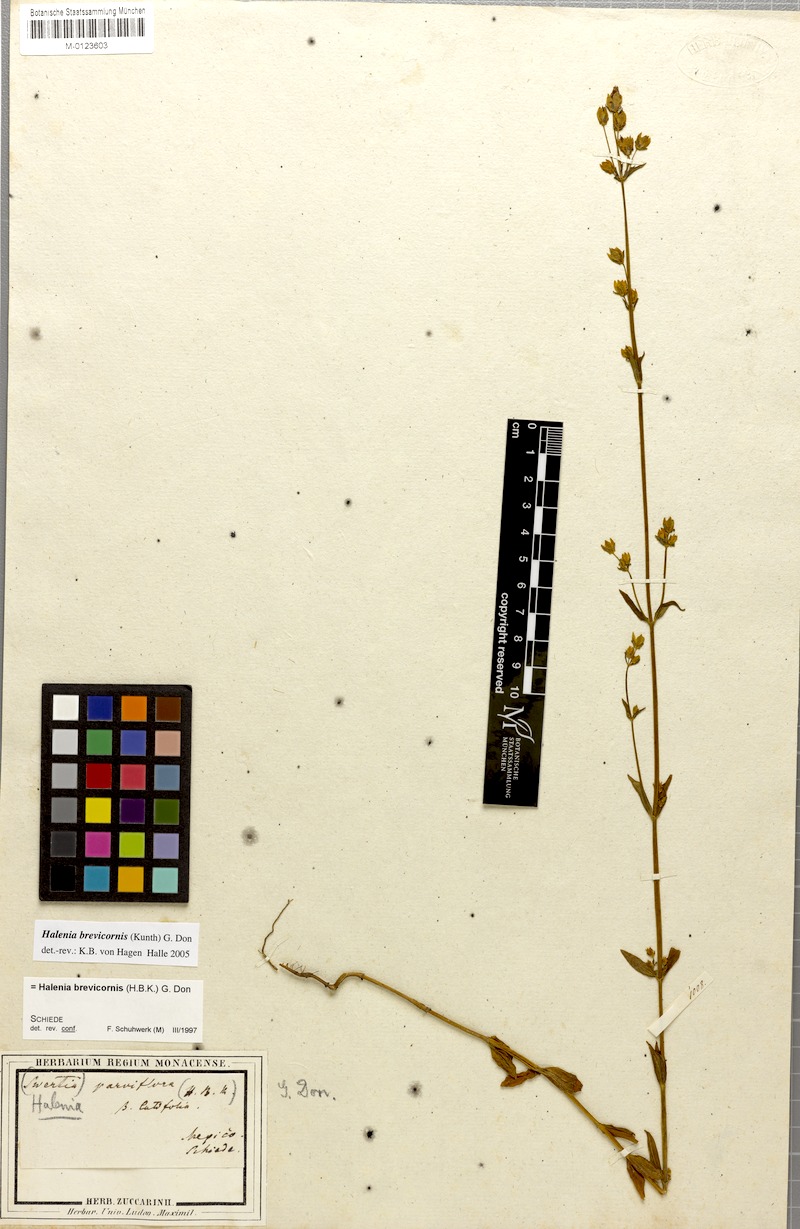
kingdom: Plantae
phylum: Tracheophyta
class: Magnoliopsida
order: Gentianales
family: Gentianaceae
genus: Halenia
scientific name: Halenia brevicornis
